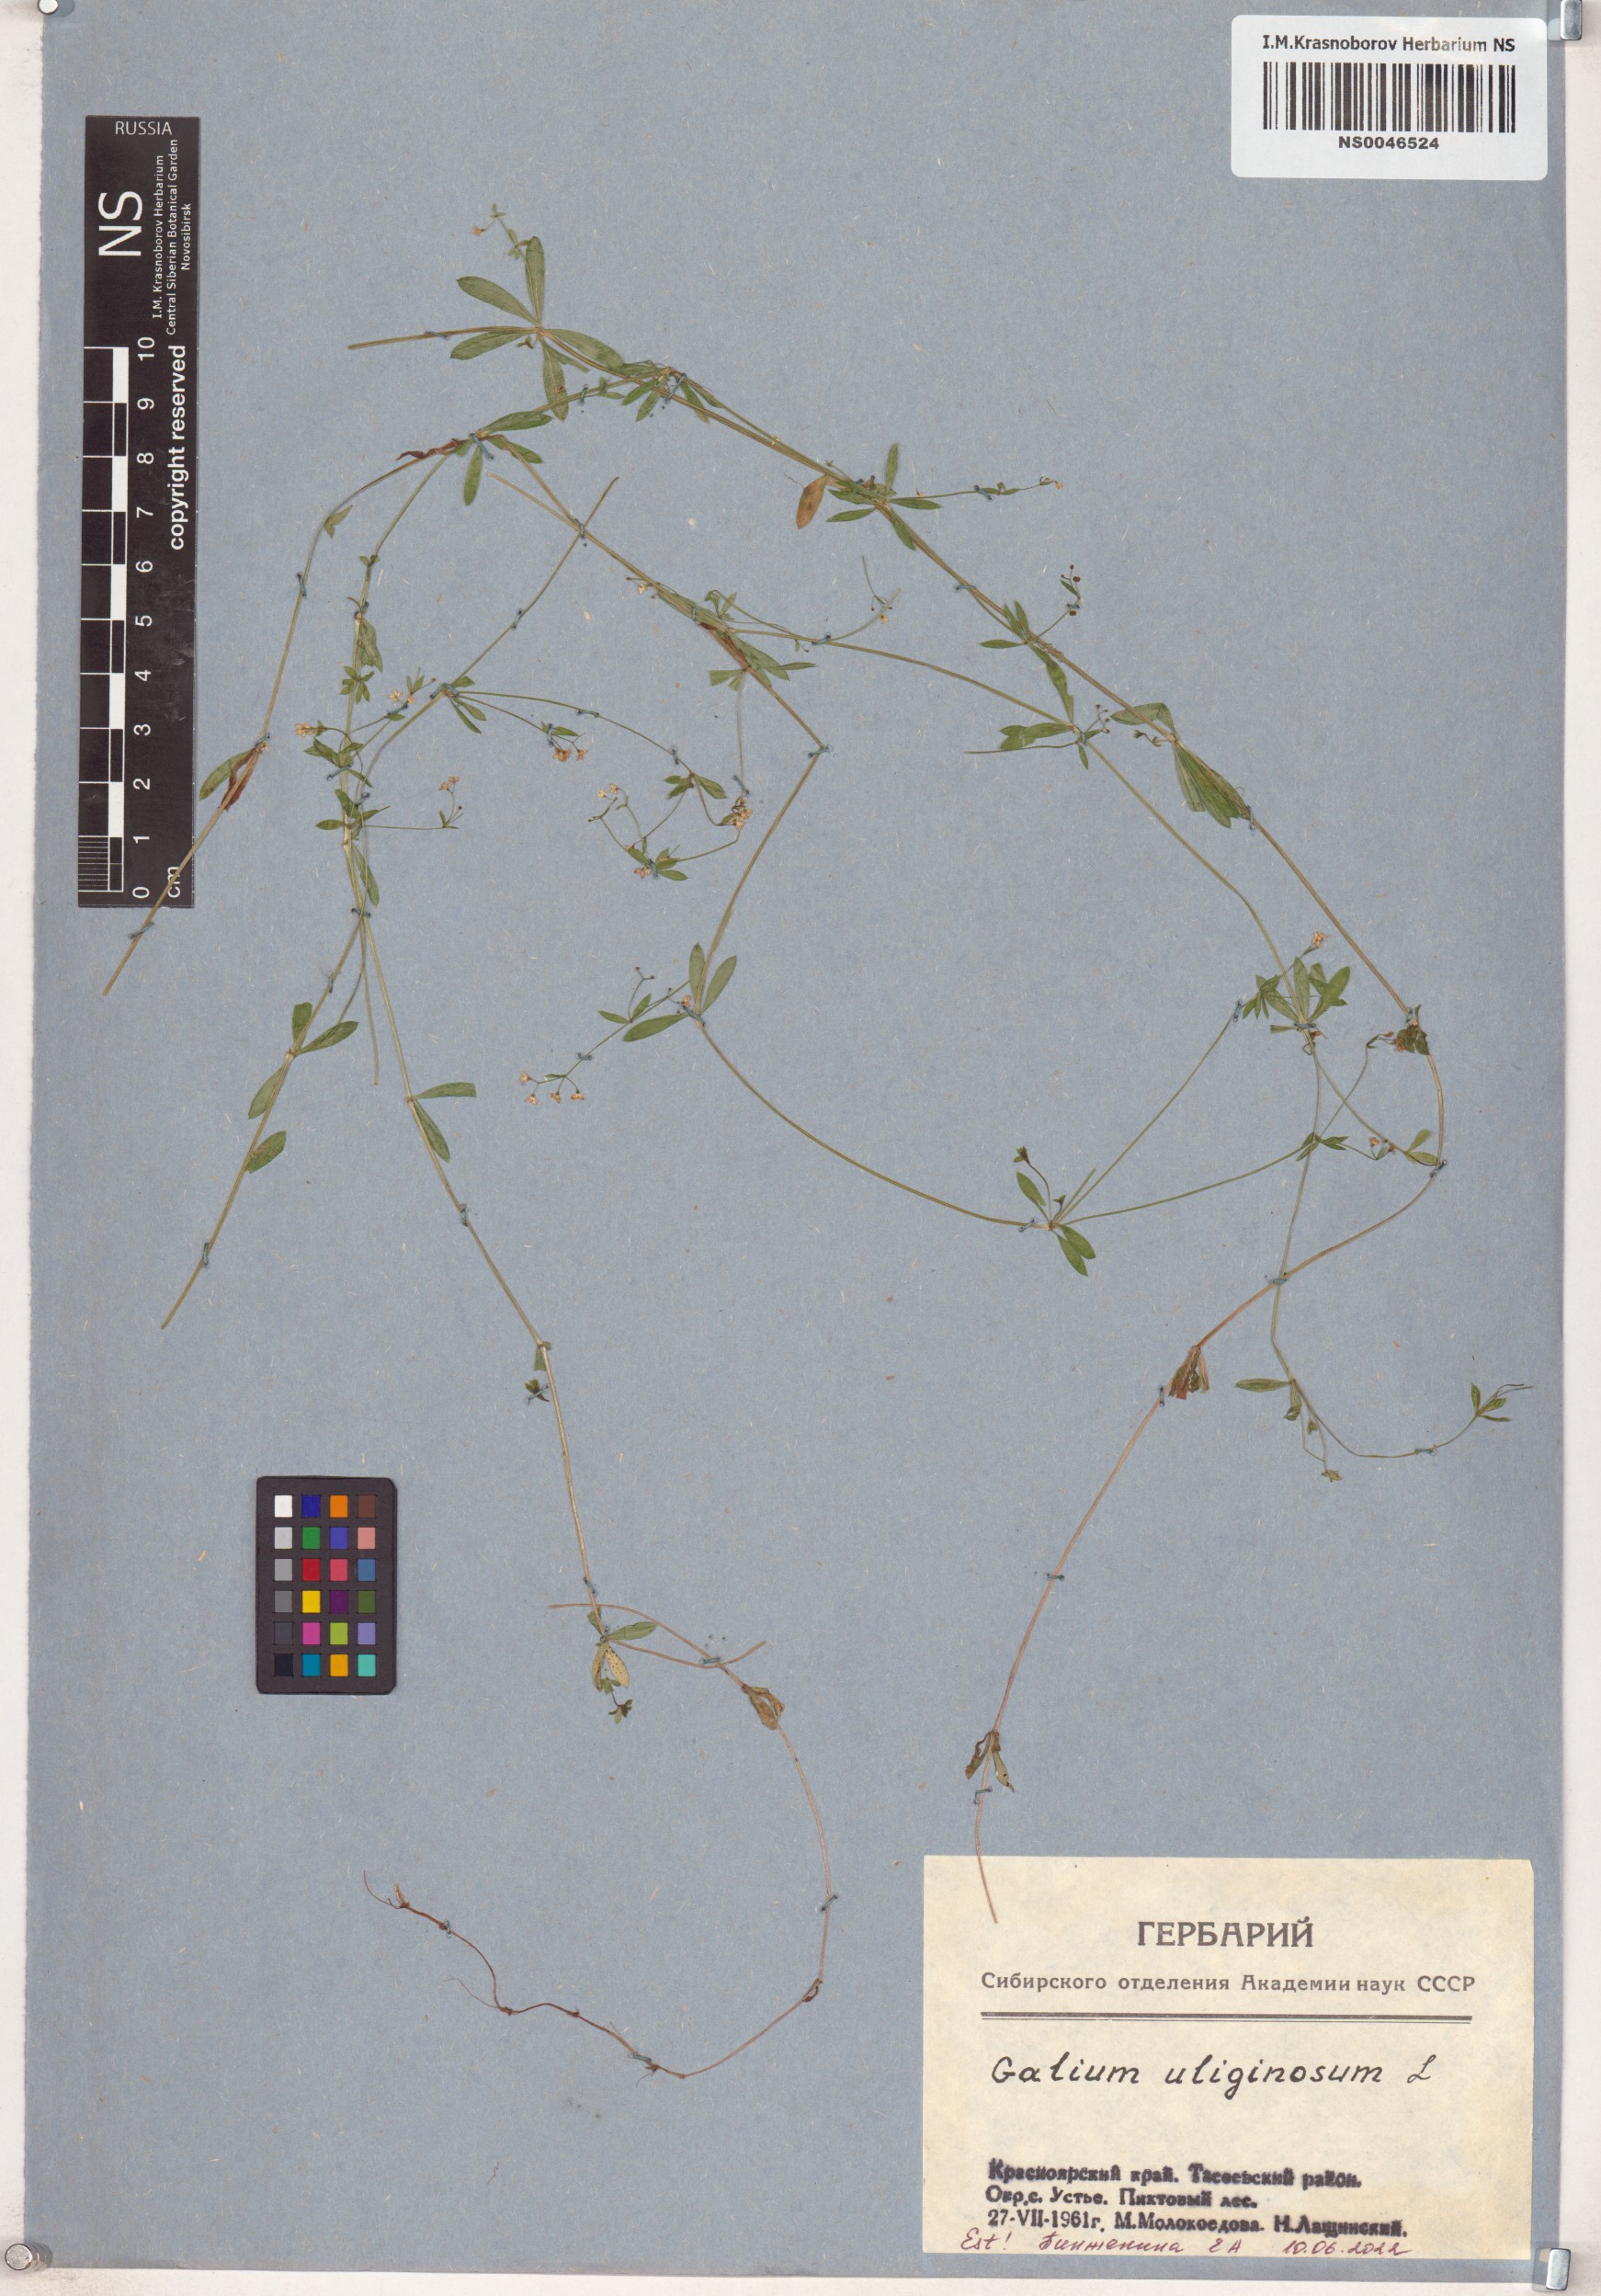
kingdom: Plantae
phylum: Tracheophyta
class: Magnoliopsida
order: Gentianales
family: Rubiaceae
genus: Galium
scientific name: Galium uliginosum
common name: Fen bedstraw
